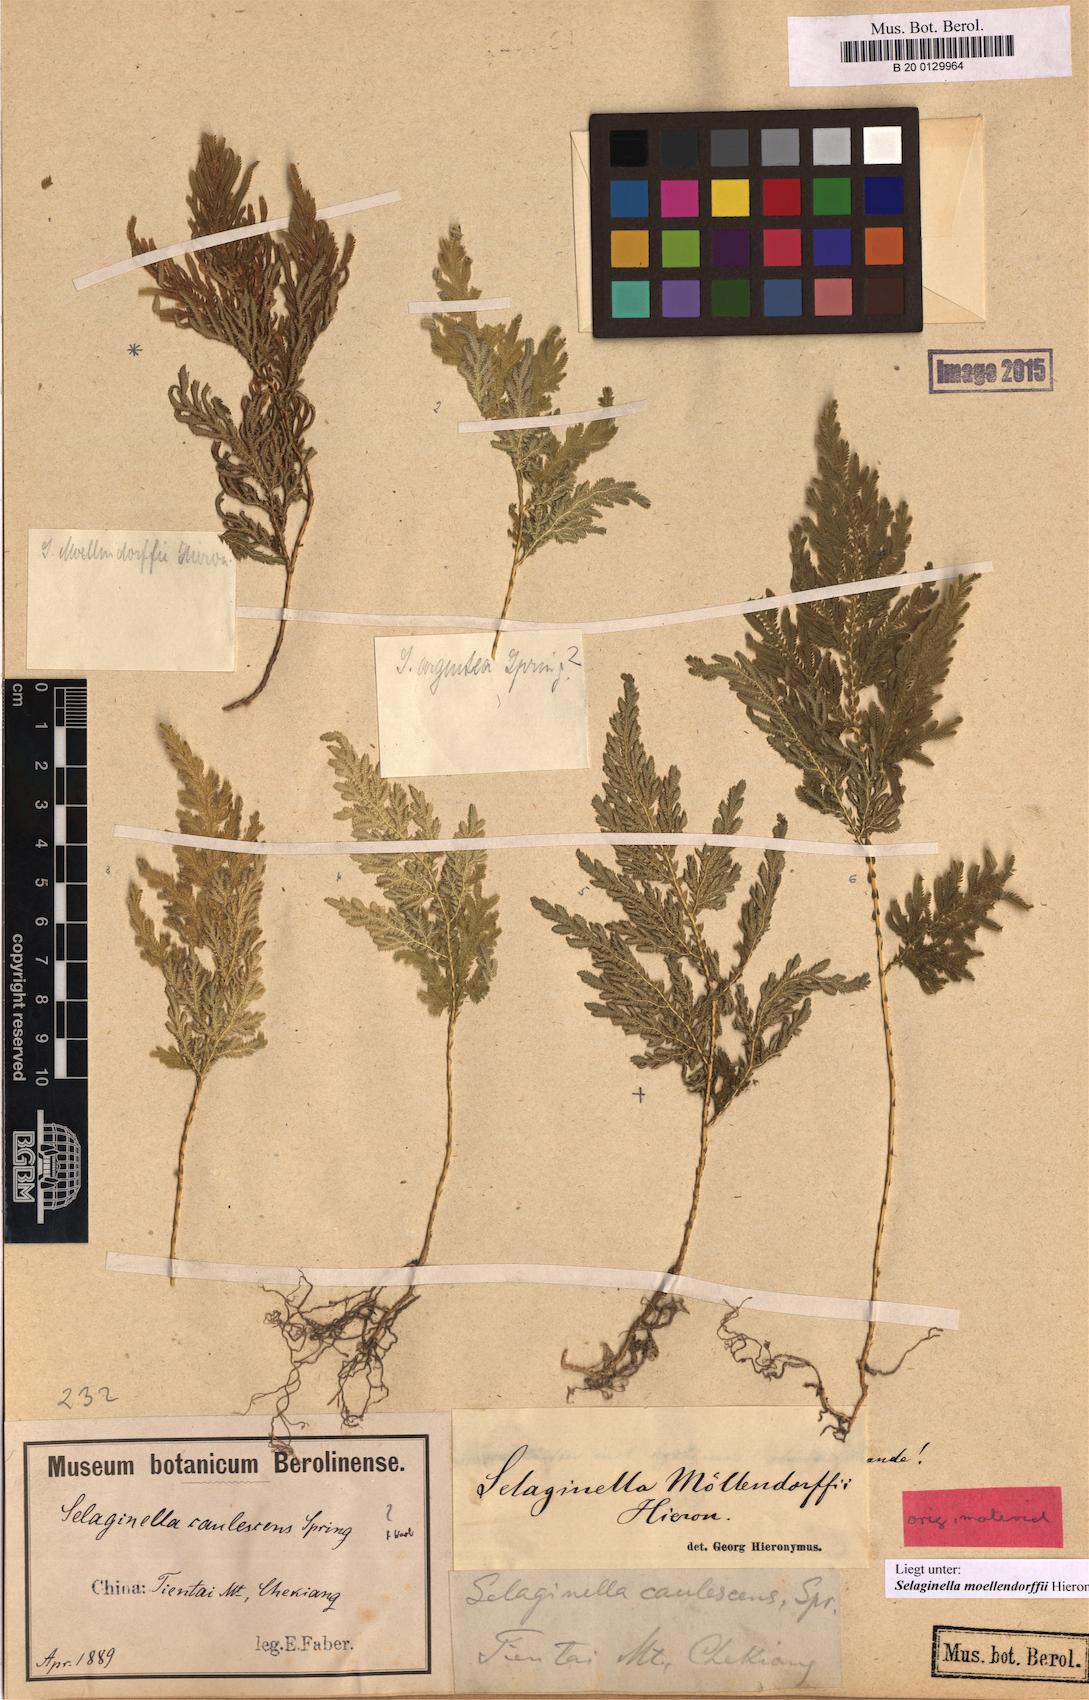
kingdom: Plantae
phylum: Tracheophyta
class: Lycopodiopsida
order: Selaginellales
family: Selaginellaceae
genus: Selaginella
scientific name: Selaginella moellendorffii
